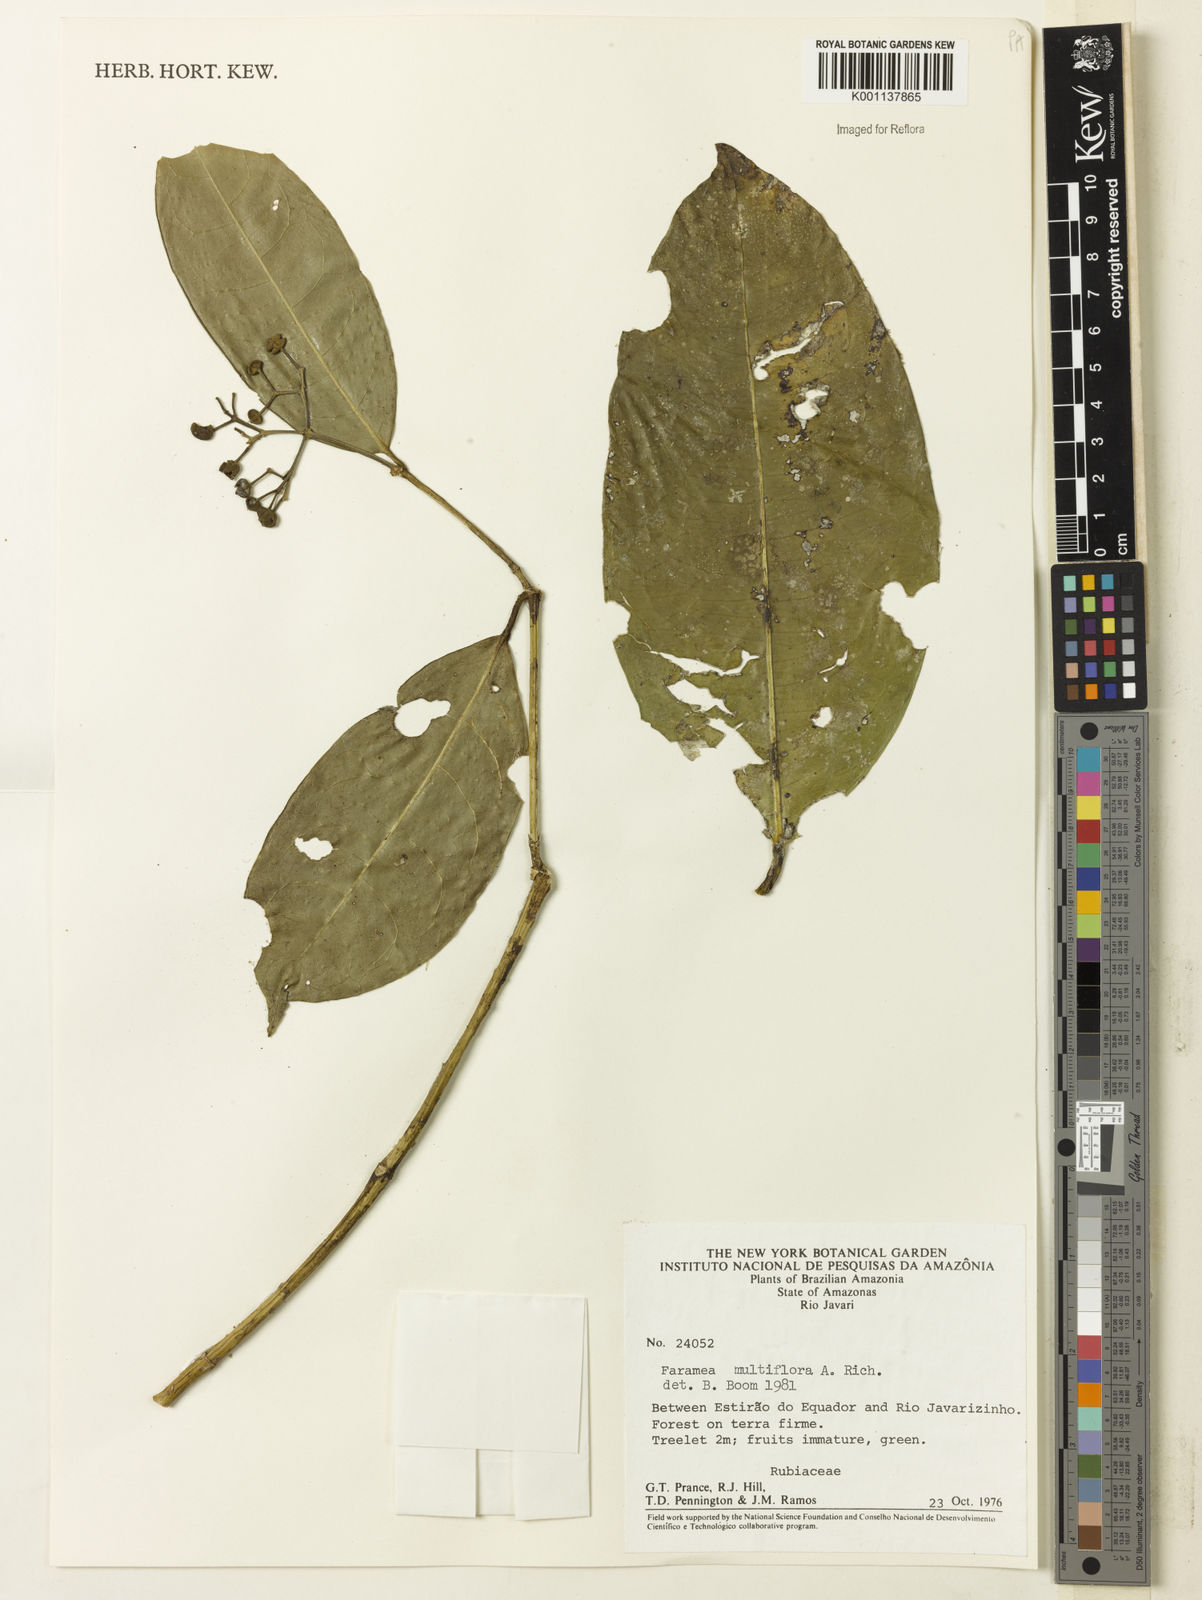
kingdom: Plantae
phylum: Tracheophyta
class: Magnoliopsida
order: Gentianales
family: Rubiaceae
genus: Faramea
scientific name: Faramea multiflora
